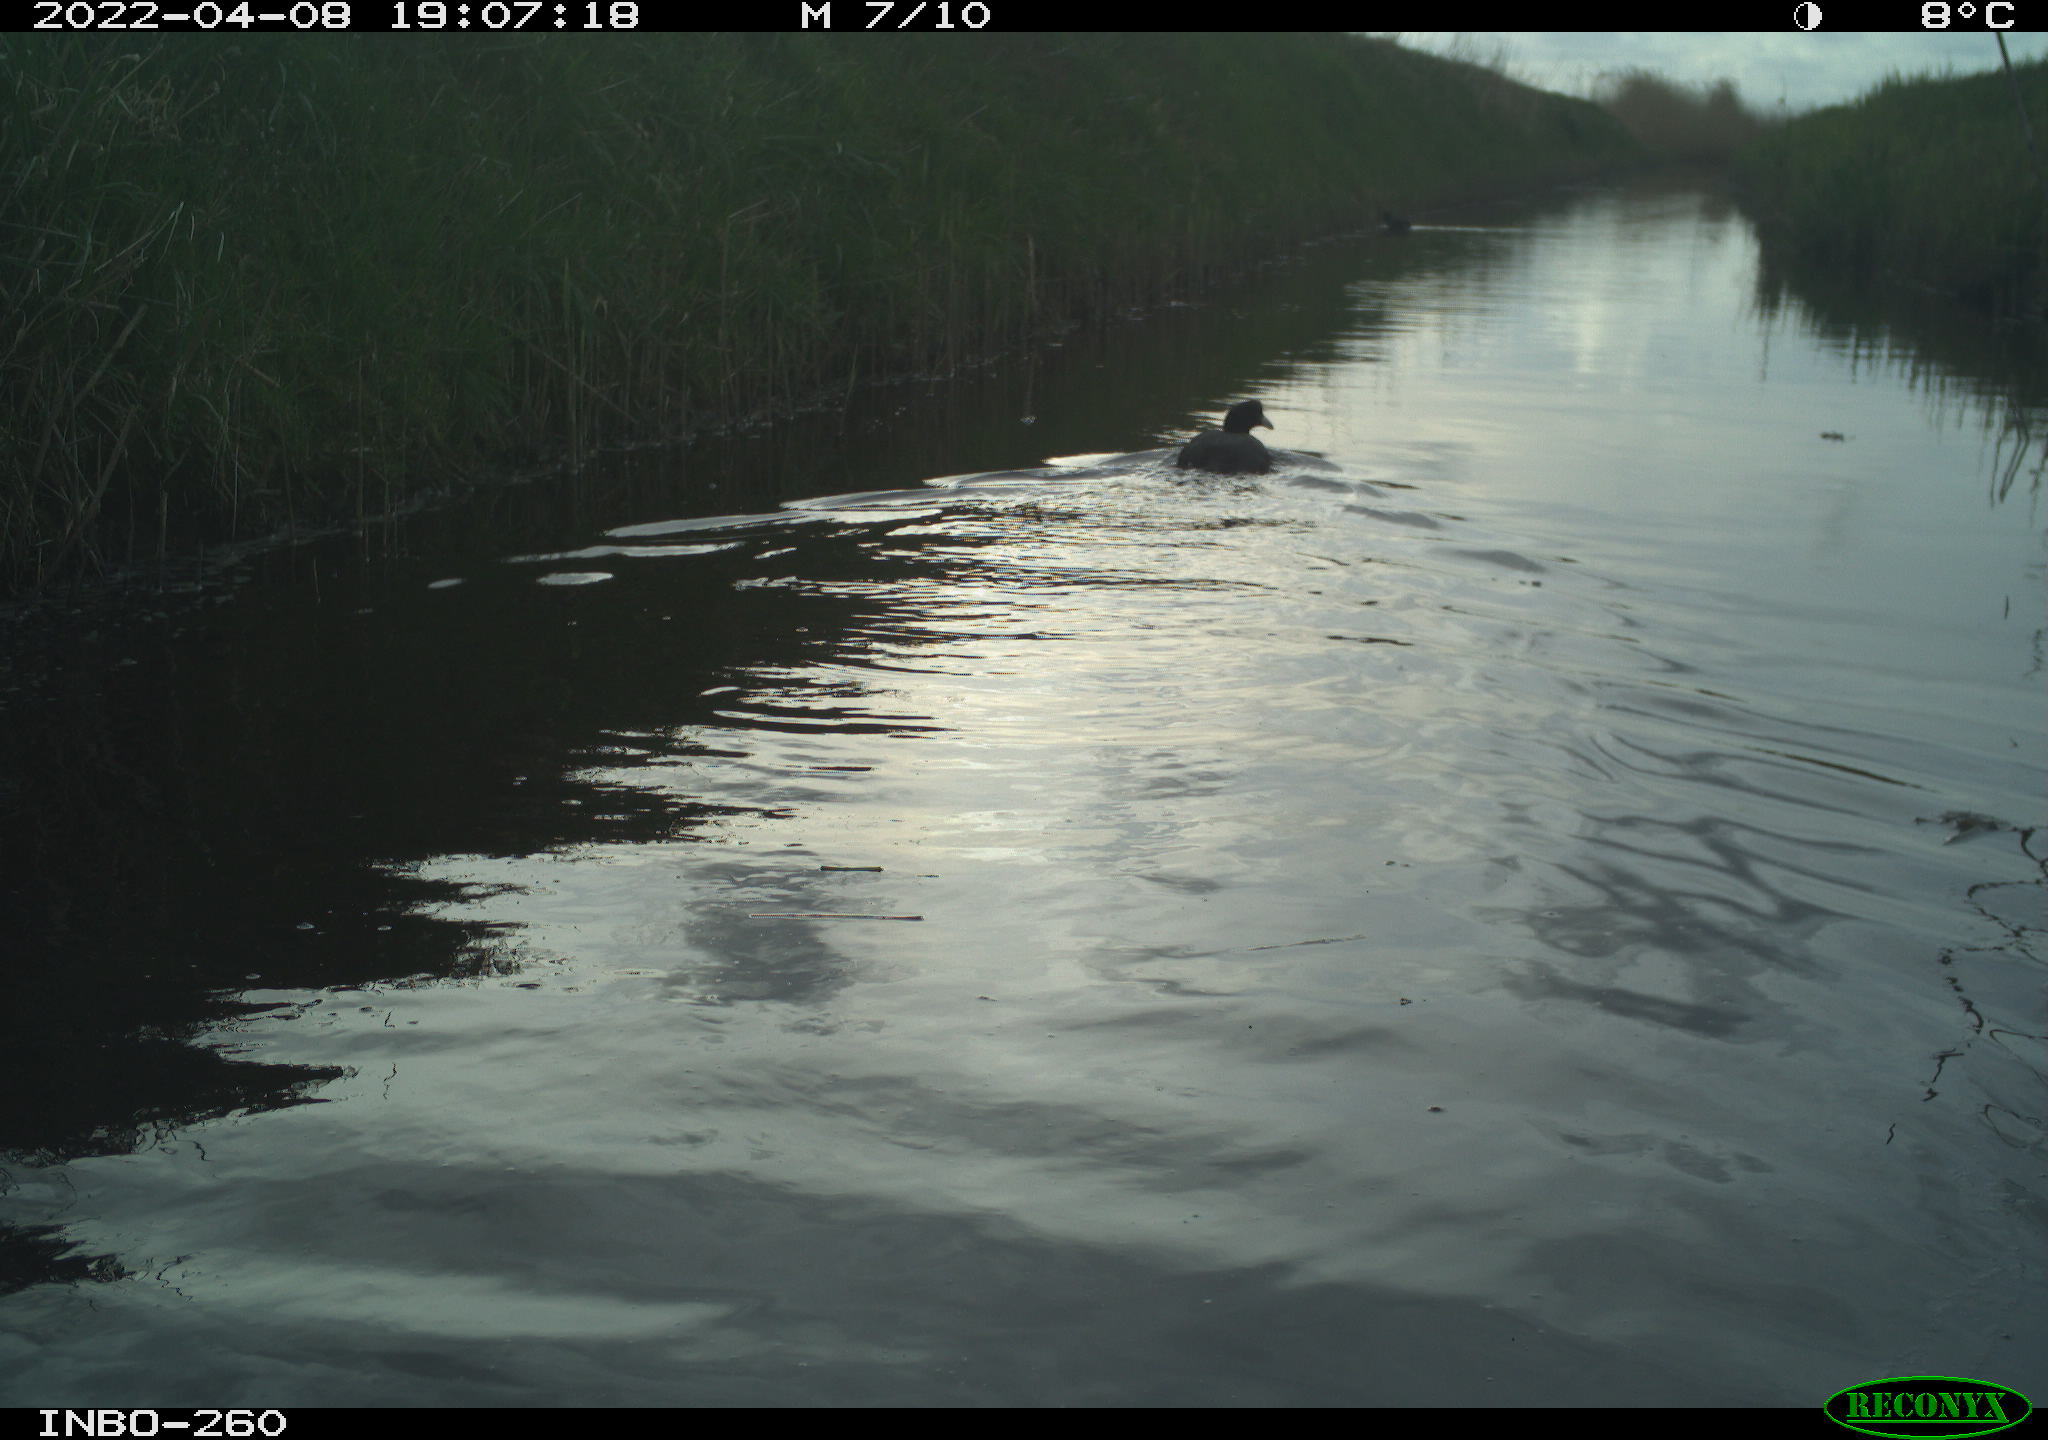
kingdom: Animalia
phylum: Chordata
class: Aves
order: Gruiformes
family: Rallidae
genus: Fulica
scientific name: Fulica atra
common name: Eurasian coot
